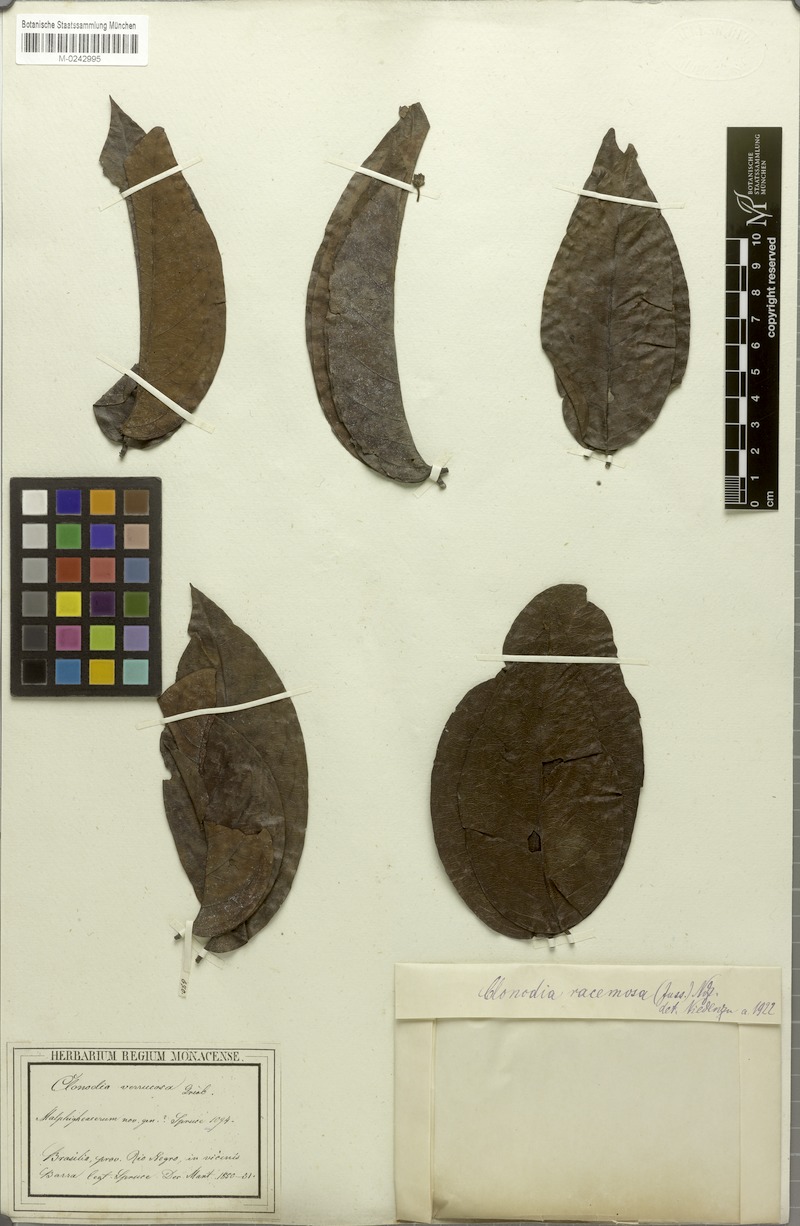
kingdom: Plantae
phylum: Tracheophyta
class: Magnoliopsida
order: Malpighiales
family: Malpighiaceae
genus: Heteropterys
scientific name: Heteropterys racemosa
